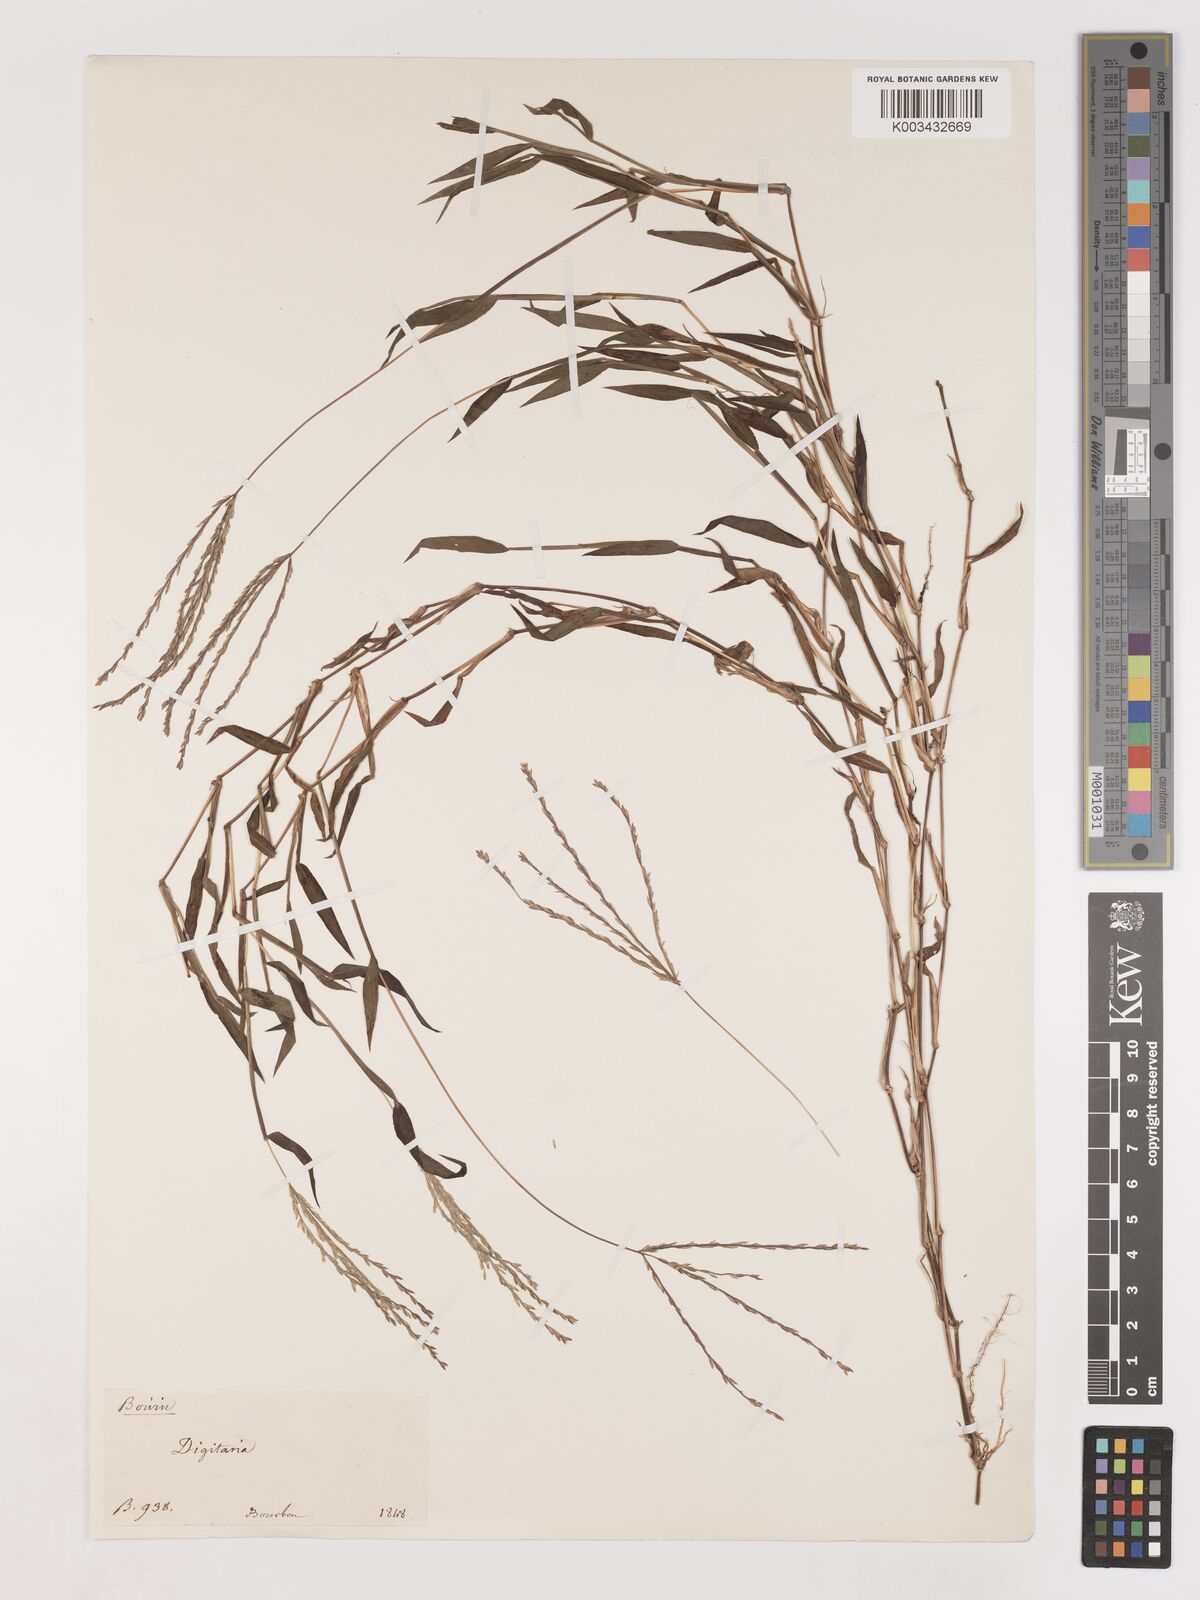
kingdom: Plantae
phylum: Tracheophyta
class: Liliopsida
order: Poales
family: Poaceae
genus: Digitaria
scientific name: Digitaria radicosa
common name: Trailing crabgrass
